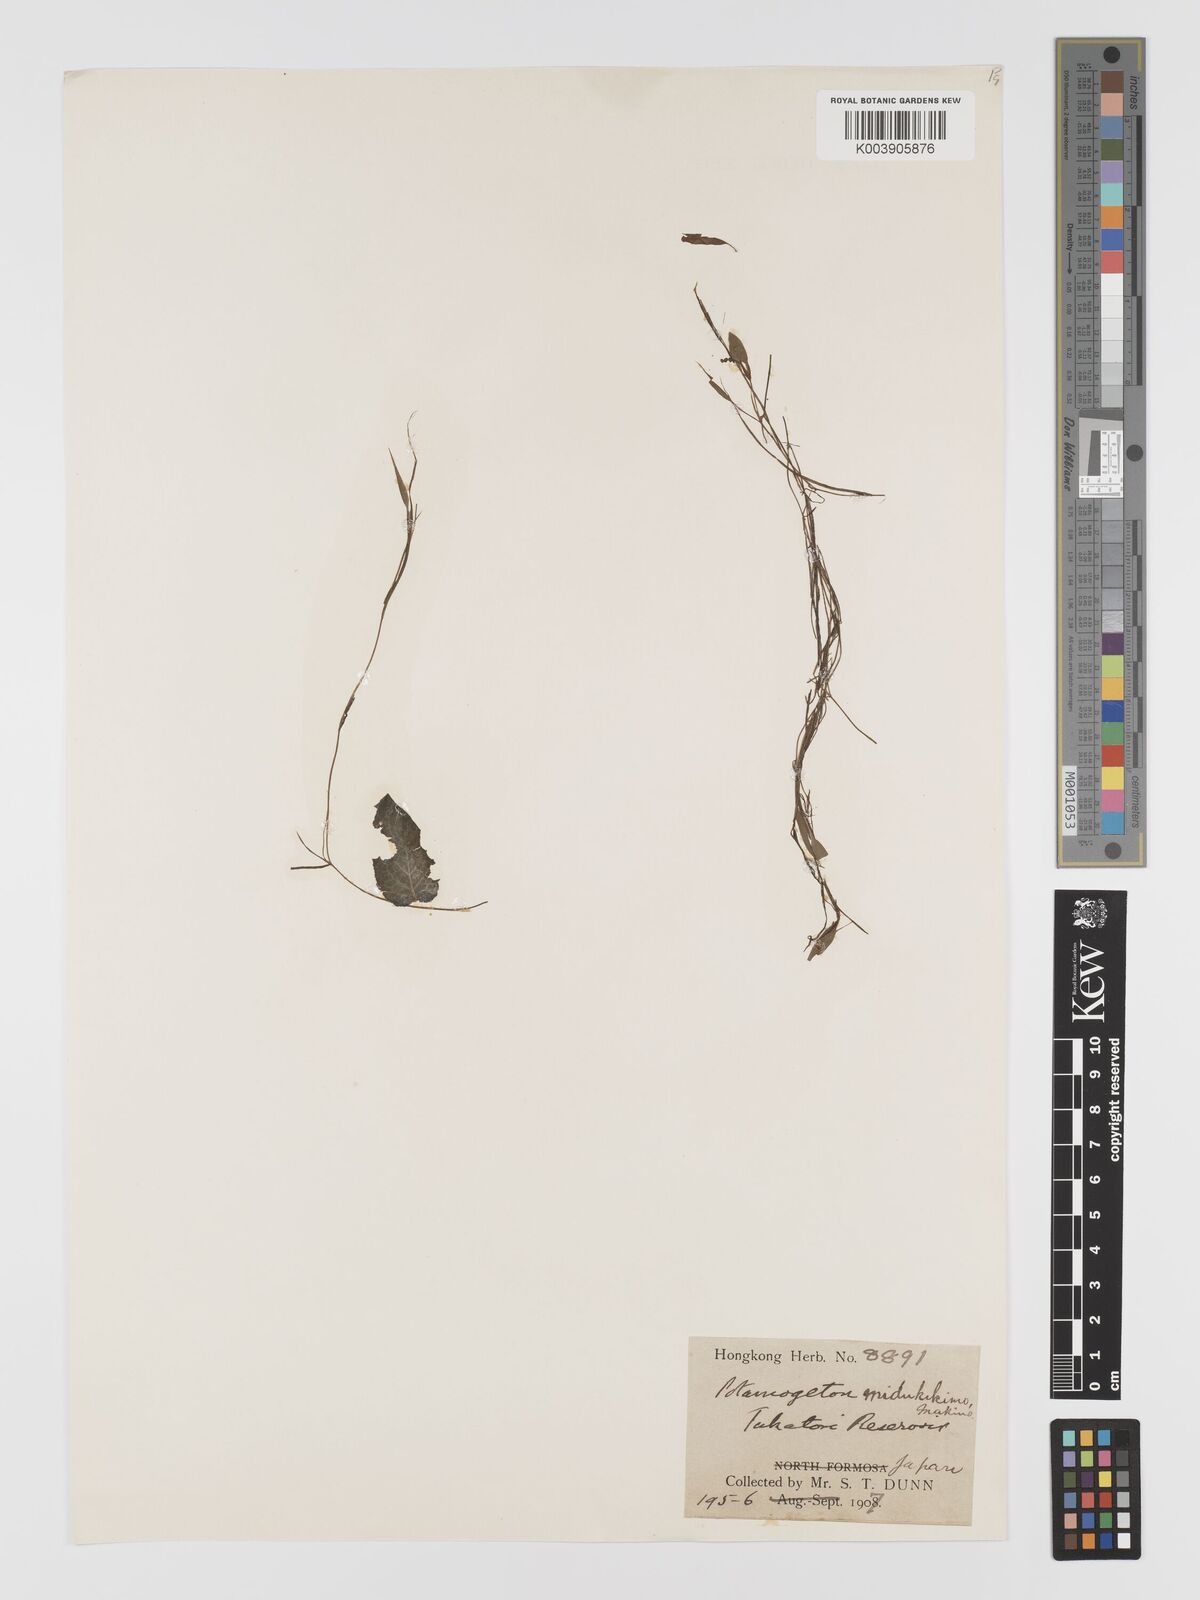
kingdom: Plantae
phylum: Tracheophyta
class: Liliopsida
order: Alismatales
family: Potamogetonaceae
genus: Potamogeton
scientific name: Potamogeton octandrus
